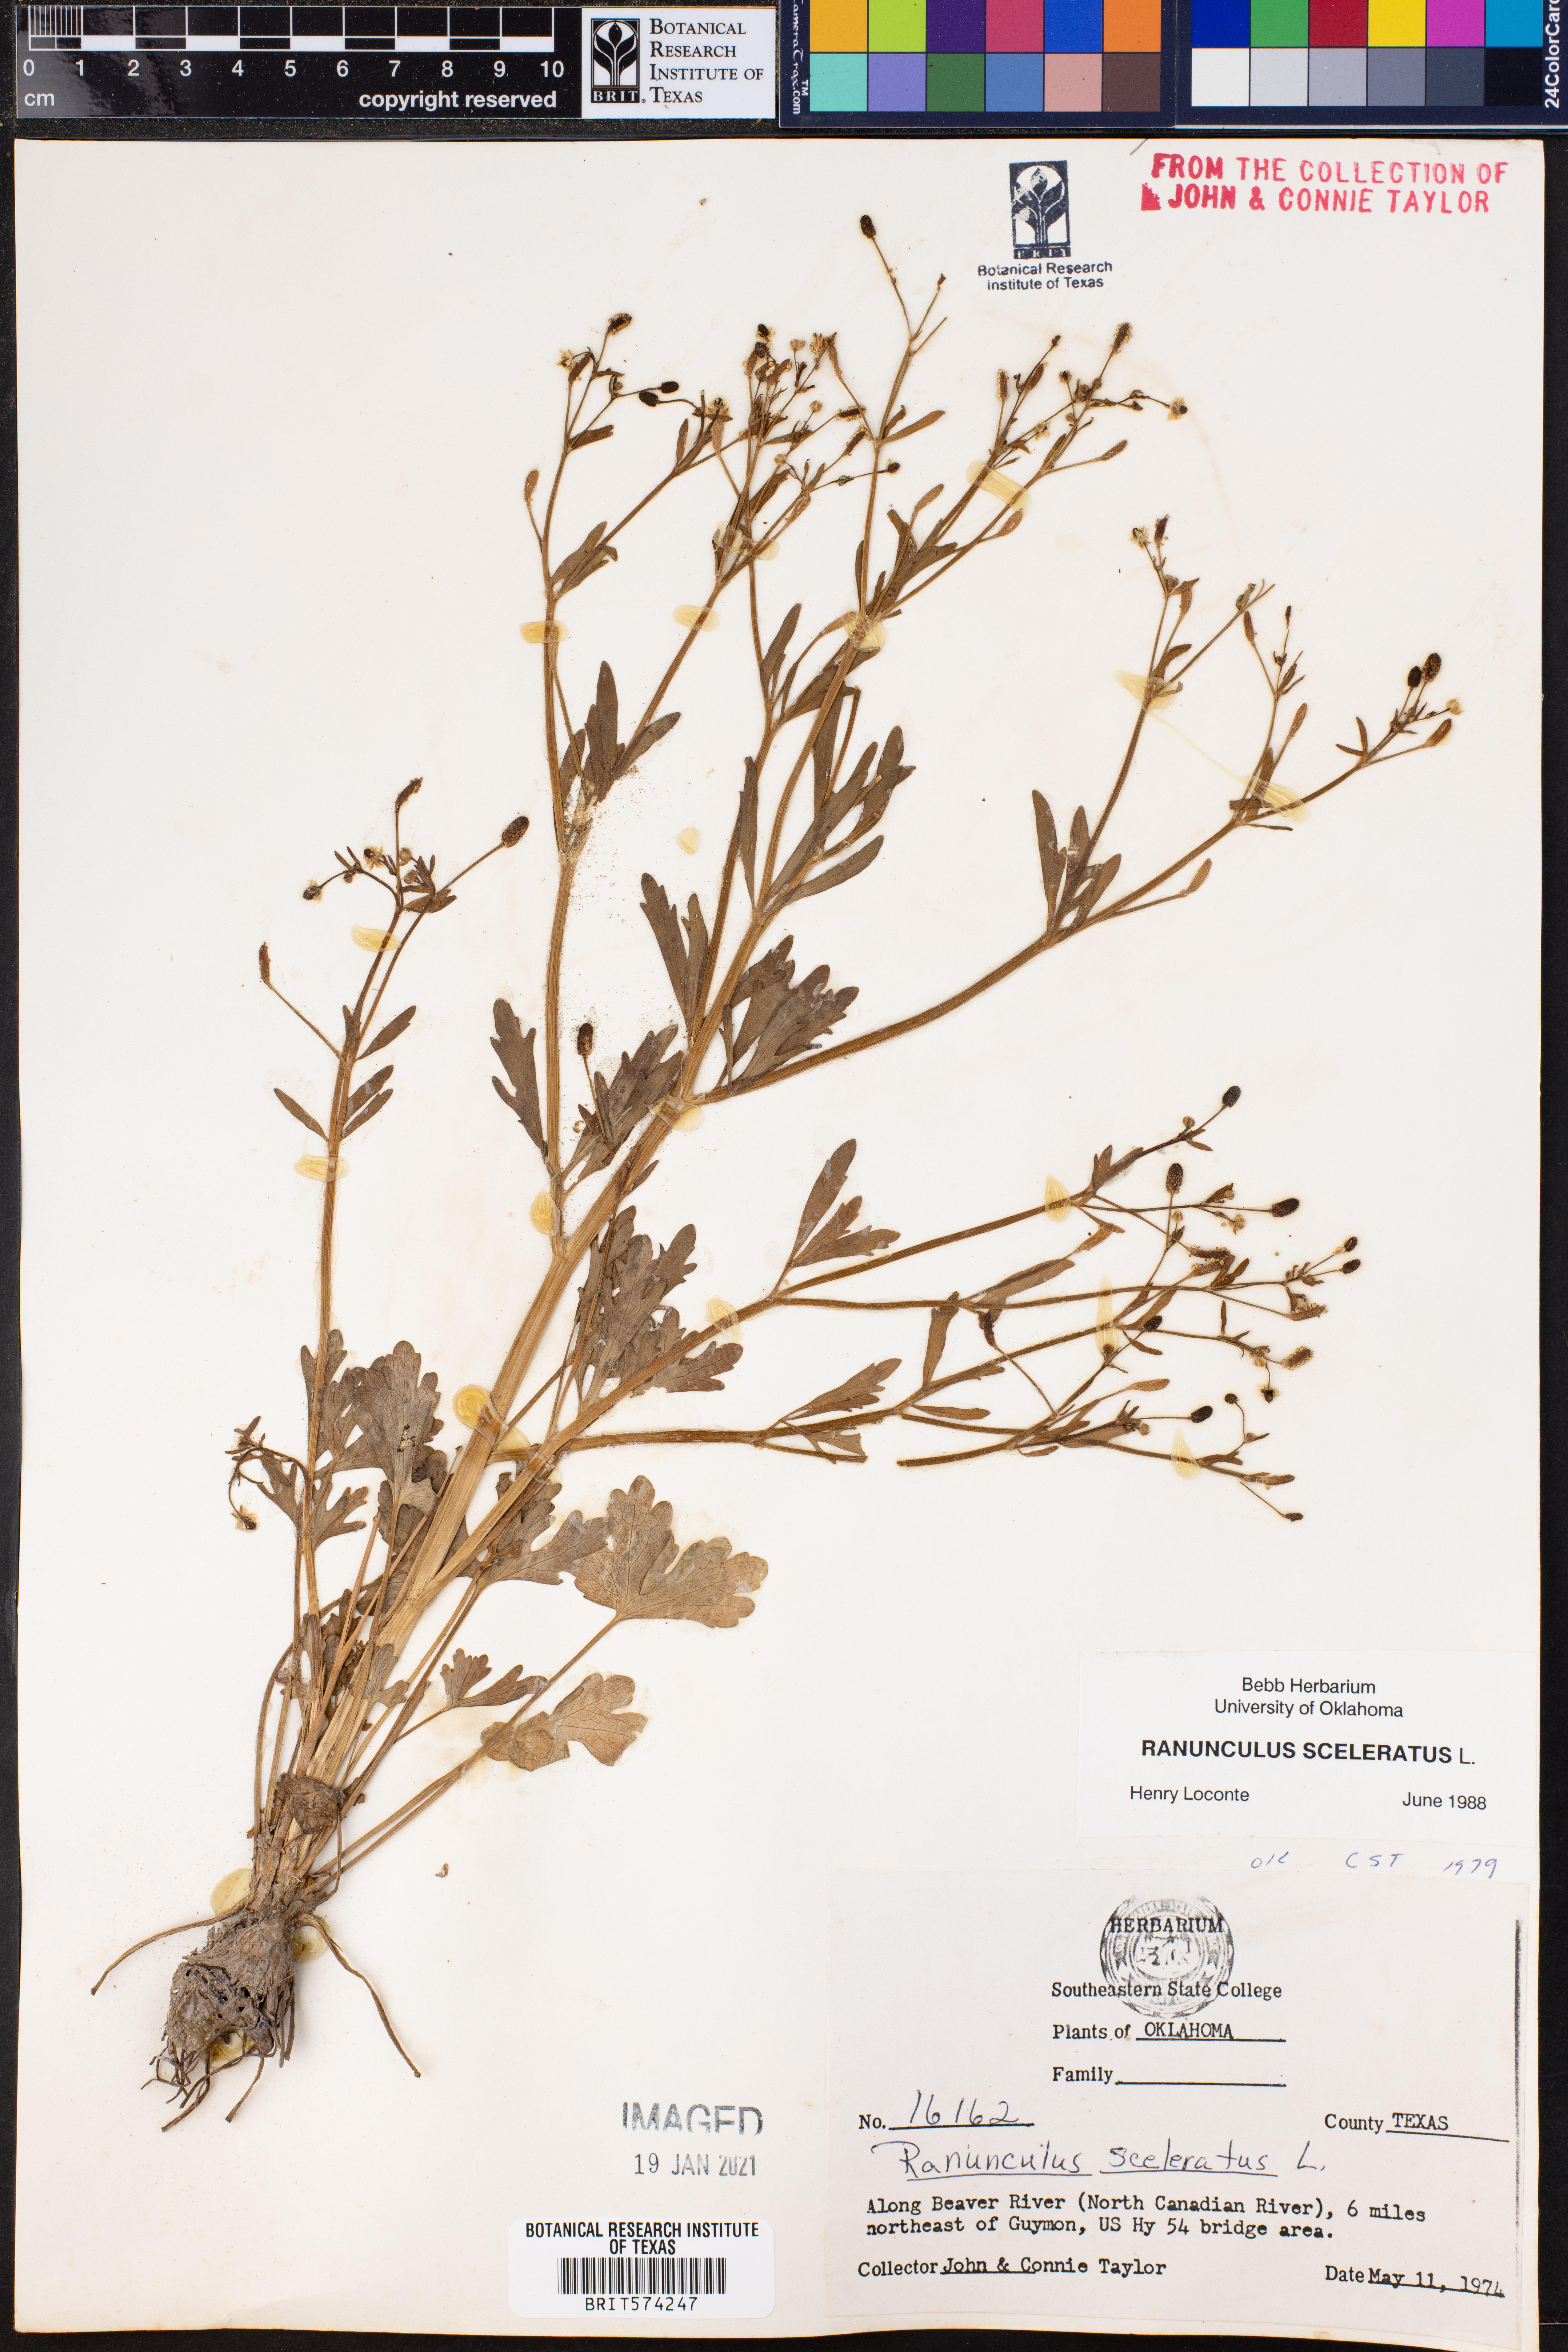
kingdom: Plantae
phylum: Tracheophyta
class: Magnoliopsida
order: Ranunculales
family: Ranunculaceae
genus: Ranunculus
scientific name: Ranunculus sceleratus
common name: Celery-leaved buttercup
